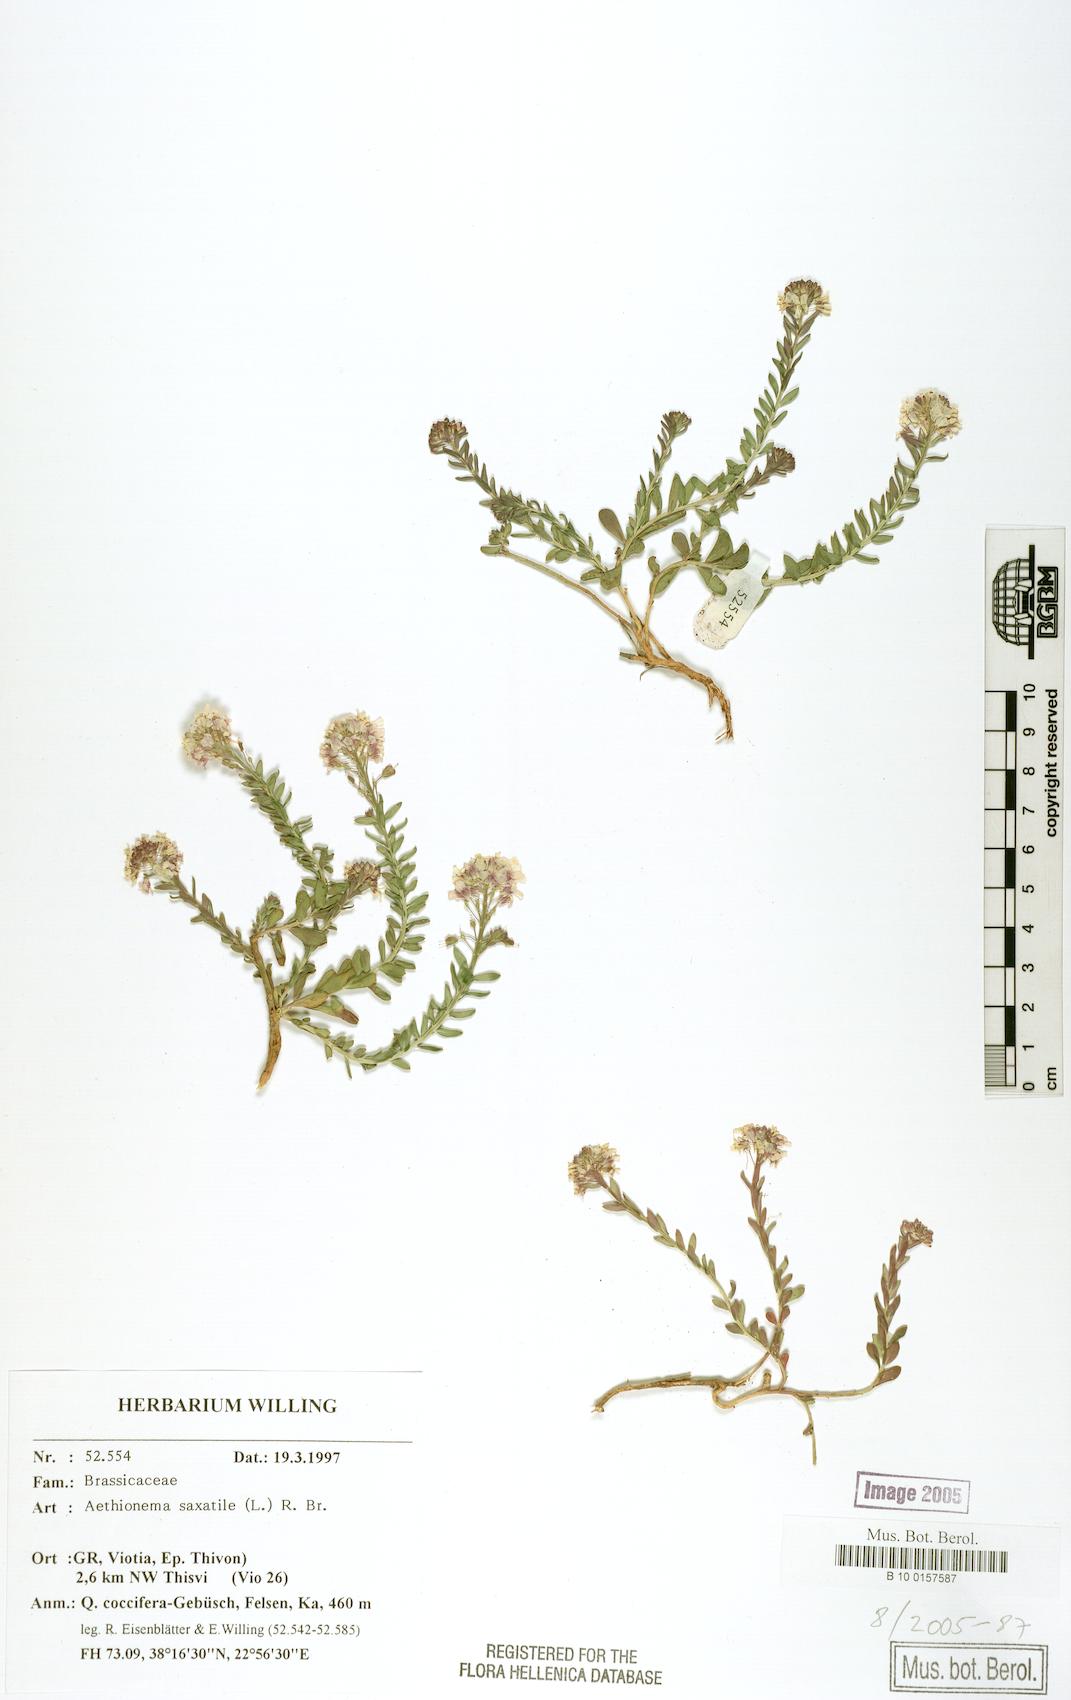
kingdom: Plantae
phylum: Tracheophyta
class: Magnoliopsida
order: Brassicales
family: Brassicaceae
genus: Aethionema
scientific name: Aethionema saxatile
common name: Burnt candytuft
